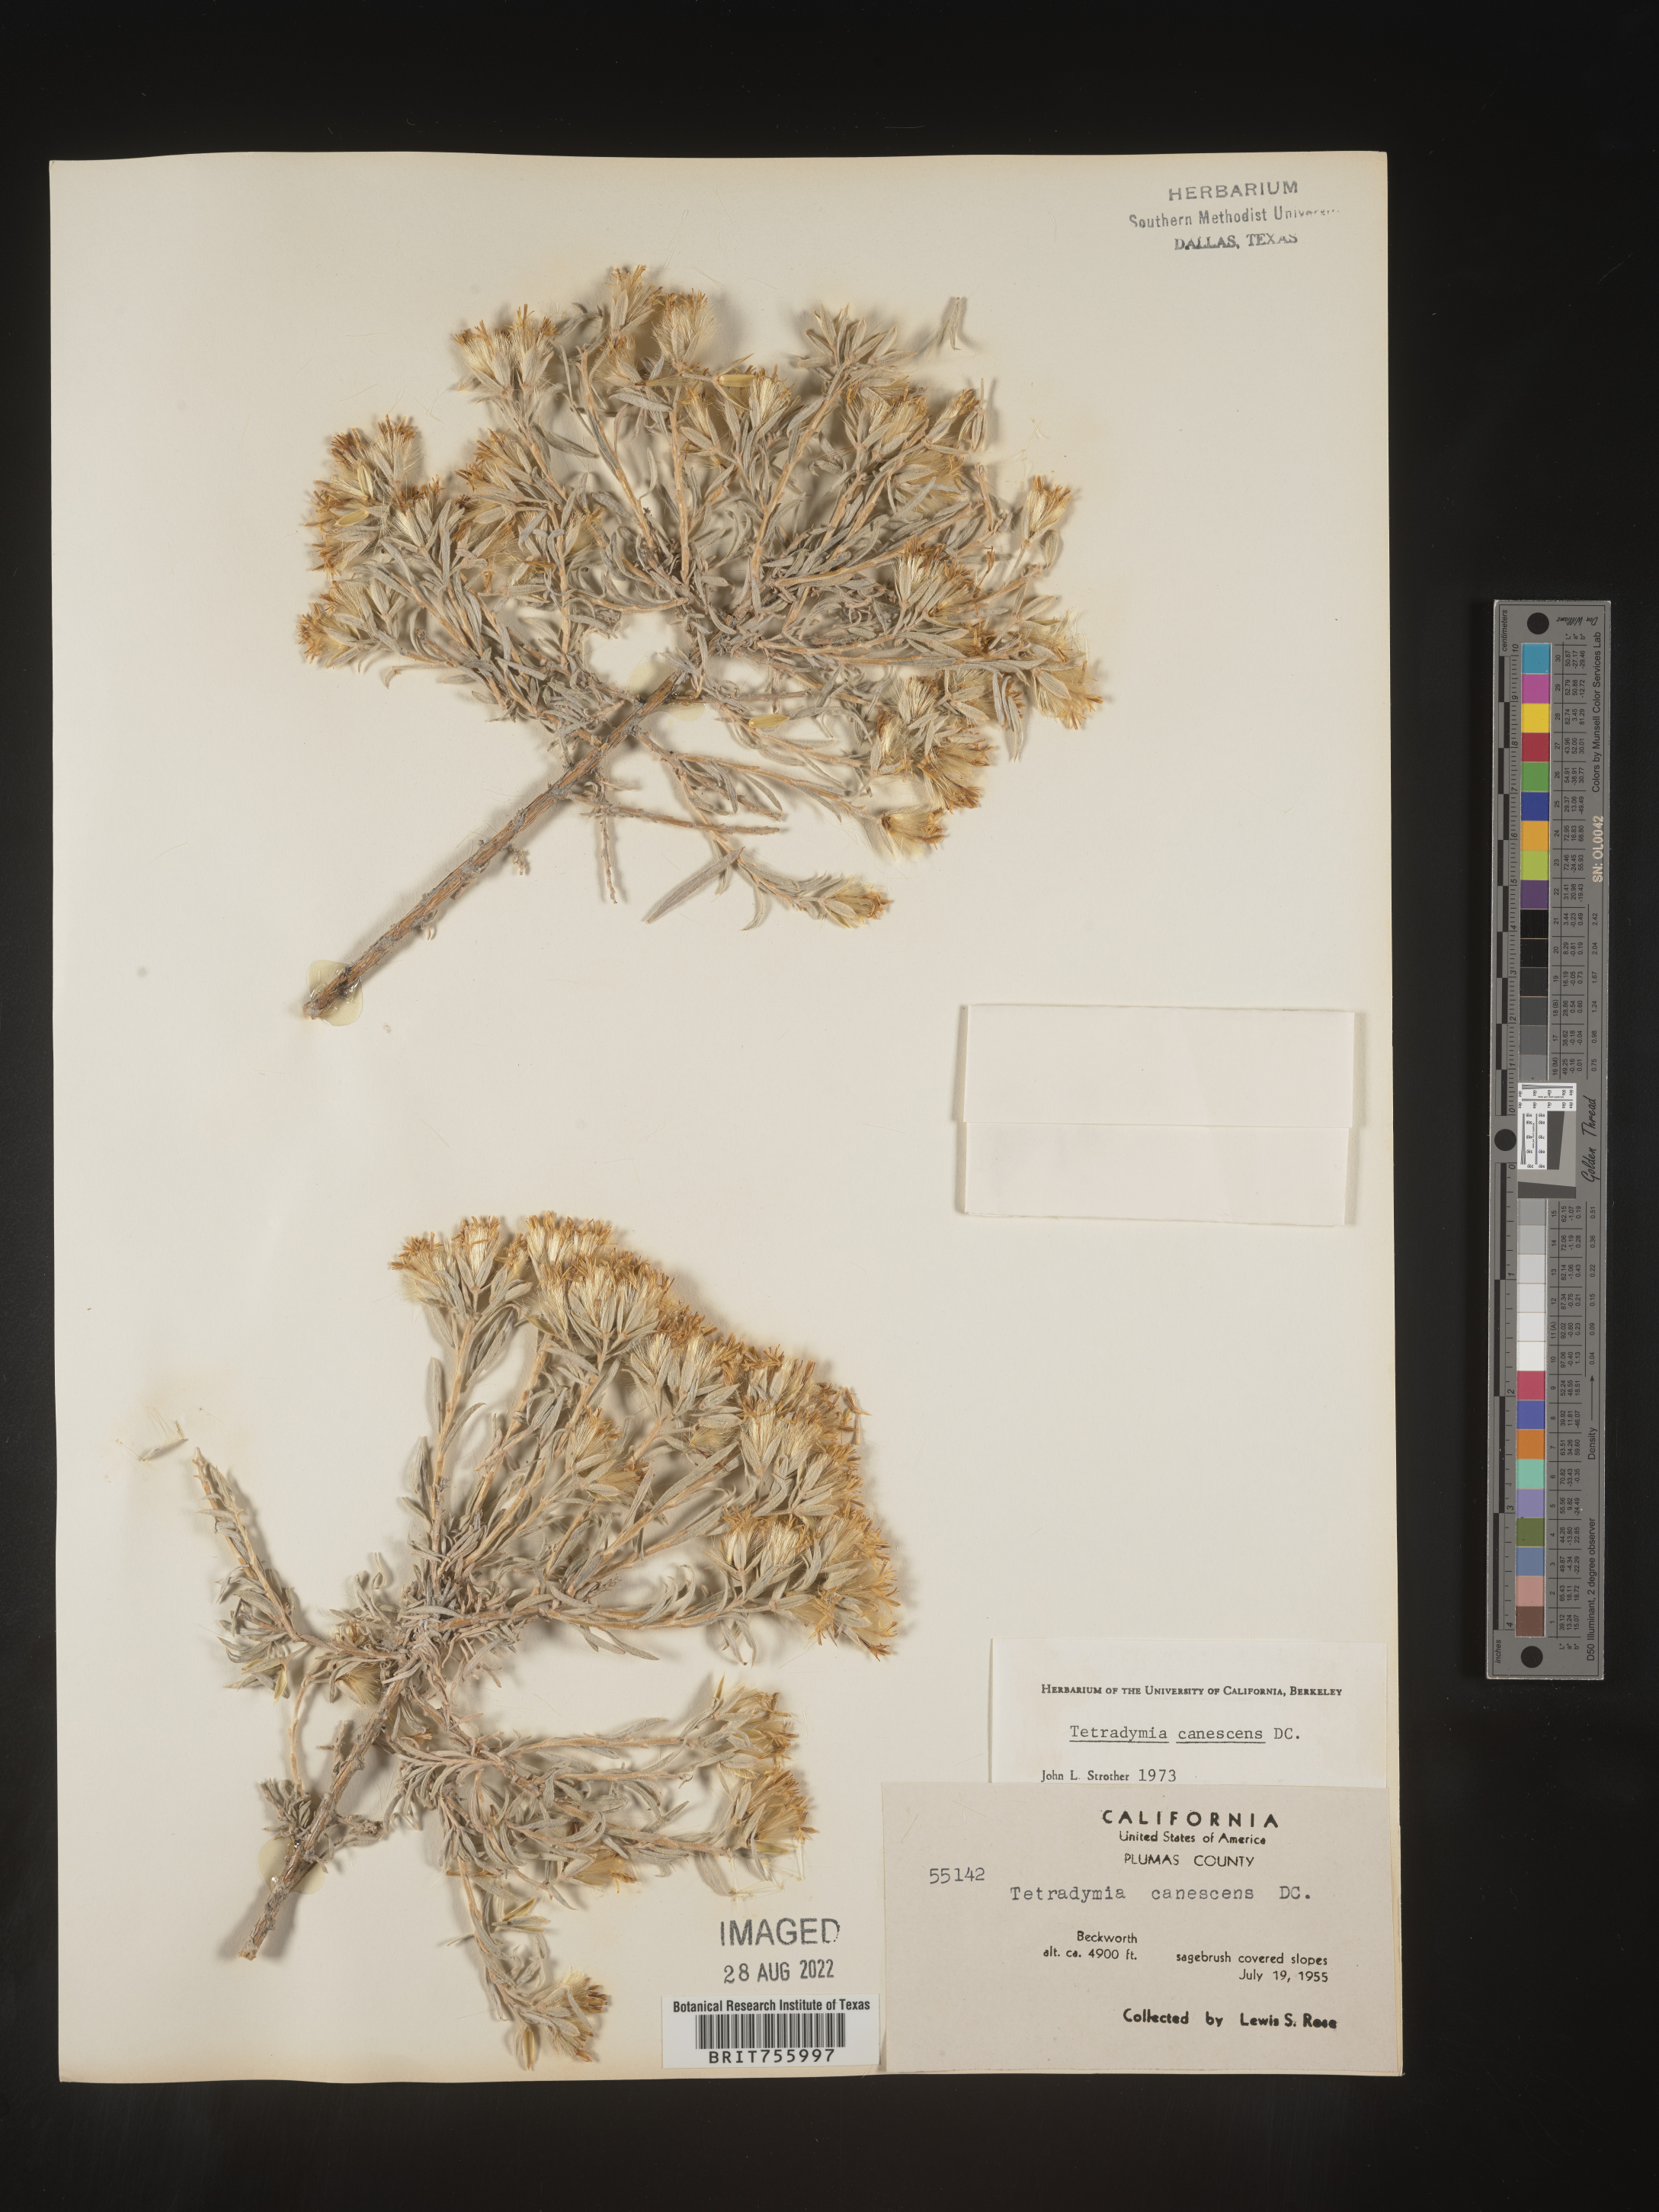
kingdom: Plantae
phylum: Tracheophyta
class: Magnoliopsida
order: Asterales
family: Asteraceae
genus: Tetradymia
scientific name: Tetradymia canescens
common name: Spineless horsebrush
